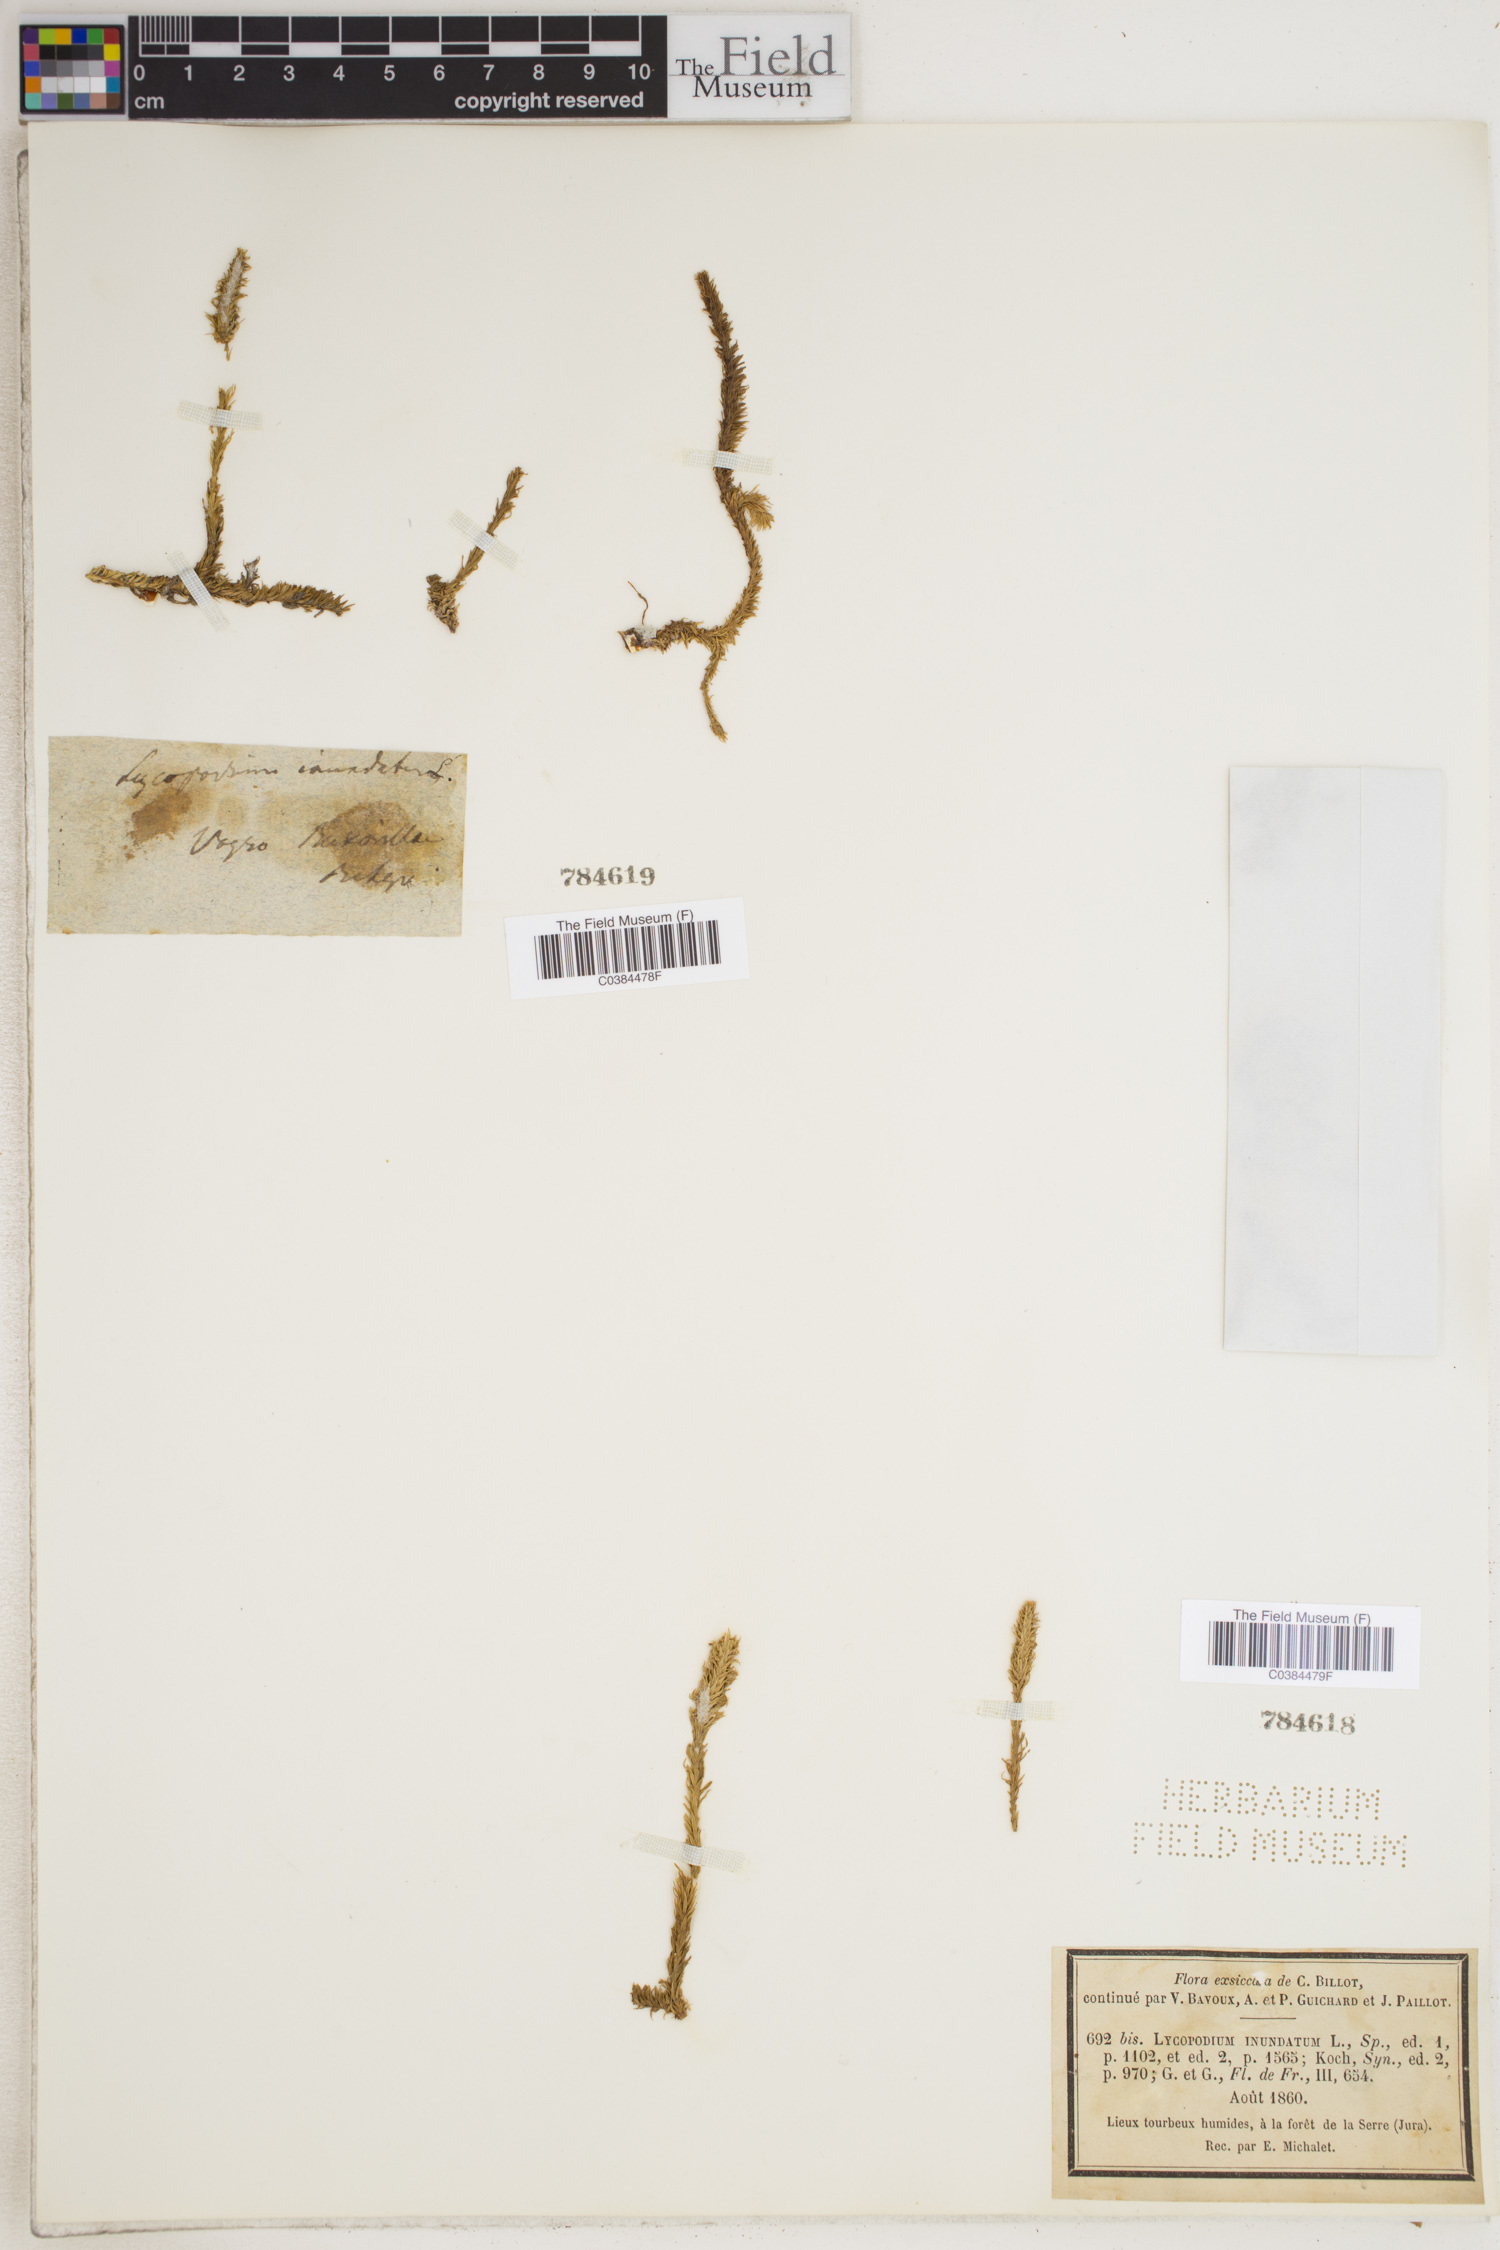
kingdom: Plantae
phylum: Tracheophyta
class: Lycopodiopsida
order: Lycopodiales
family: Lycopodiaceae
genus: Lycopodiella
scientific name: Lycopodiella inundata
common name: Marsh clubmoss
